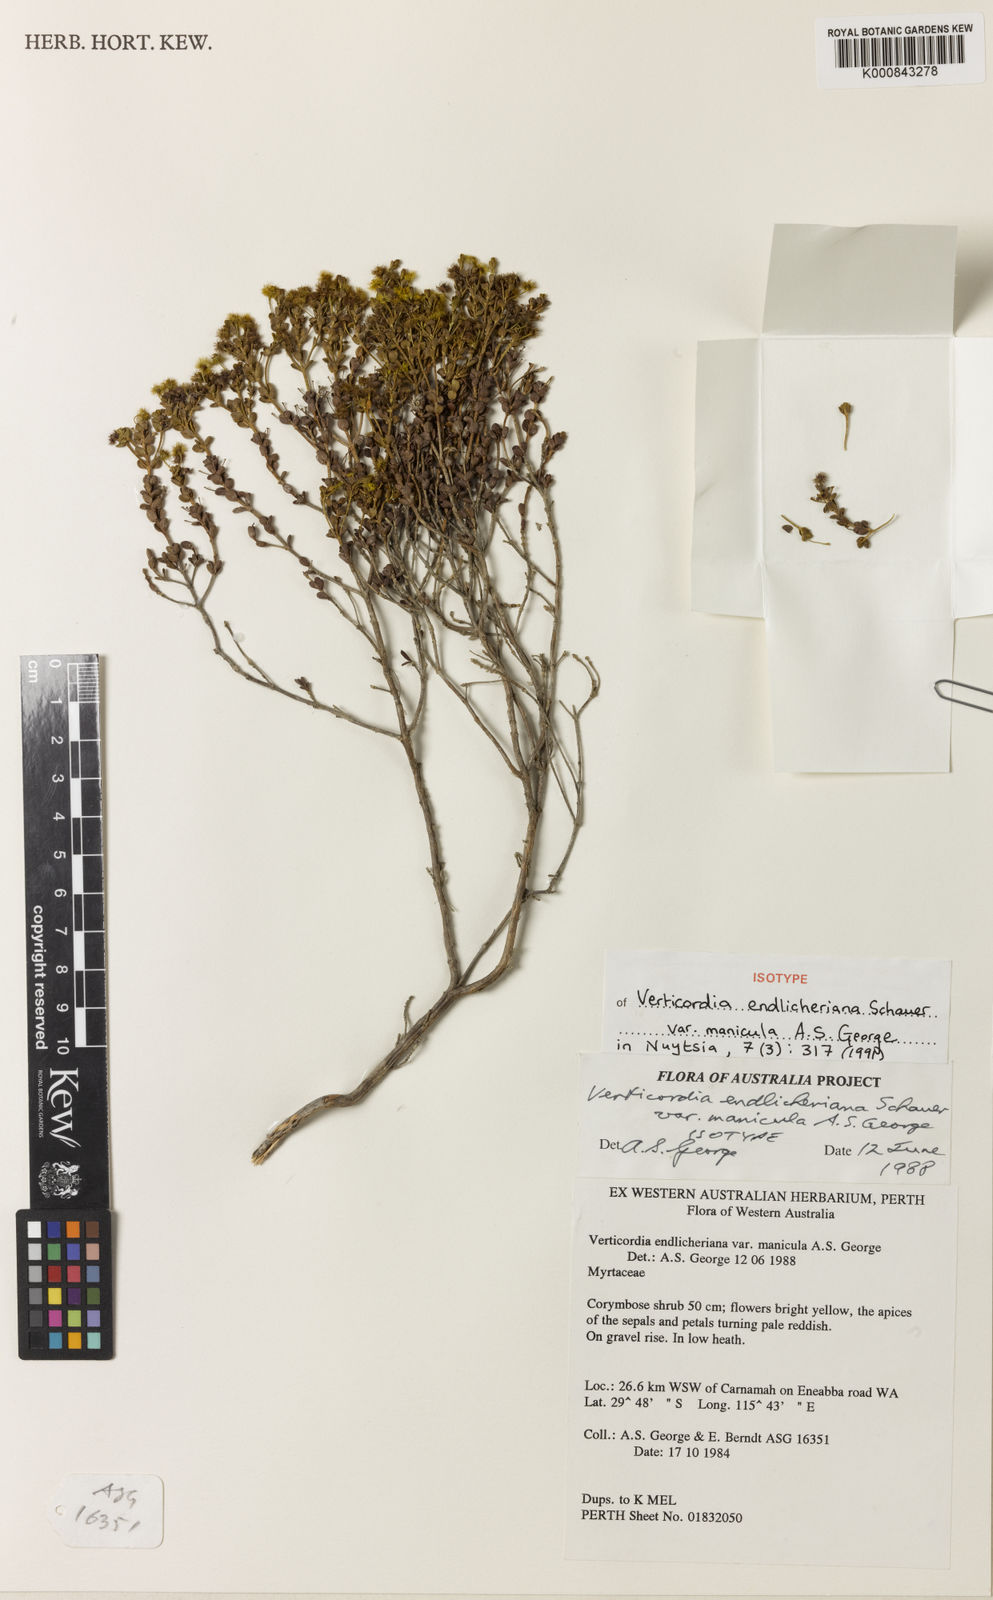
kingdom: Plantae
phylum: Tracheophyta
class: Magnoliopsida
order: Myrtales
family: Myrtaceae
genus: Verticordia
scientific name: Verticordia endlicheriana
